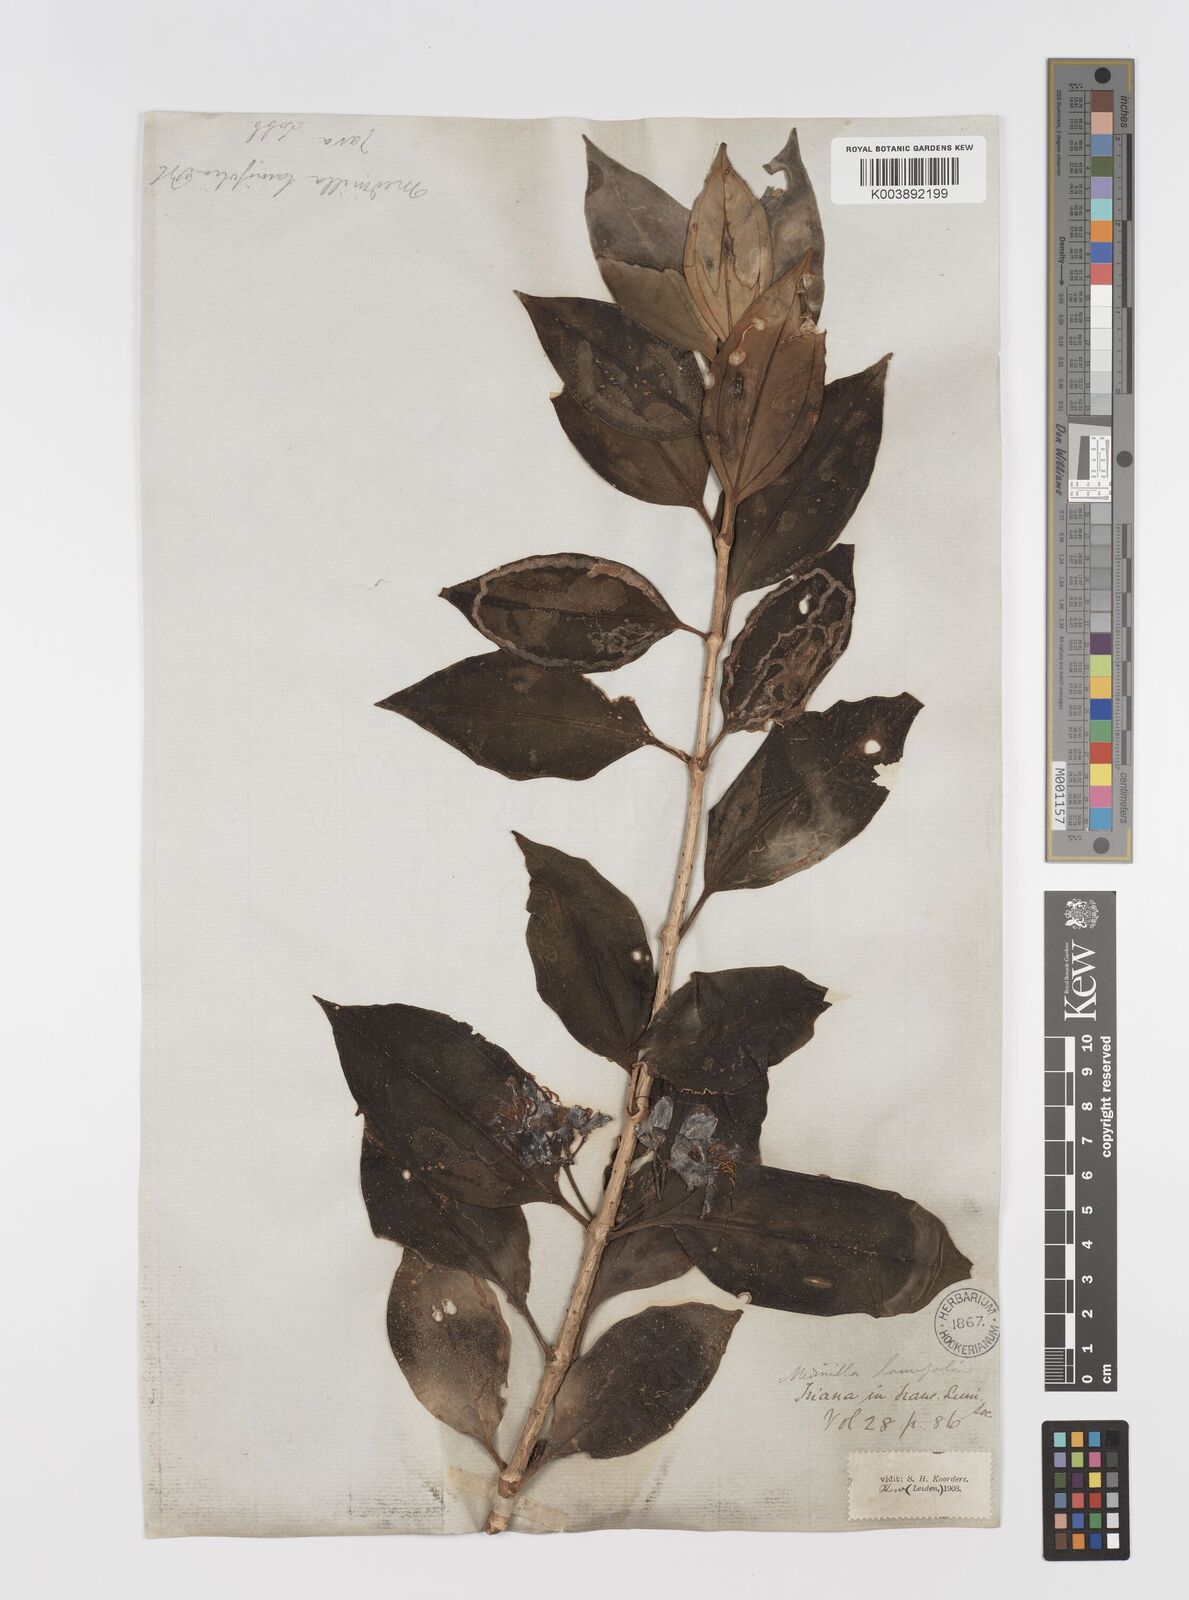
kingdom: Plantae
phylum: Tracheophyta
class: Magnoliopsida
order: Myrtales
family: Melastomataceae
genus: Medinilla
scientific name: Medinilla laurifolia
